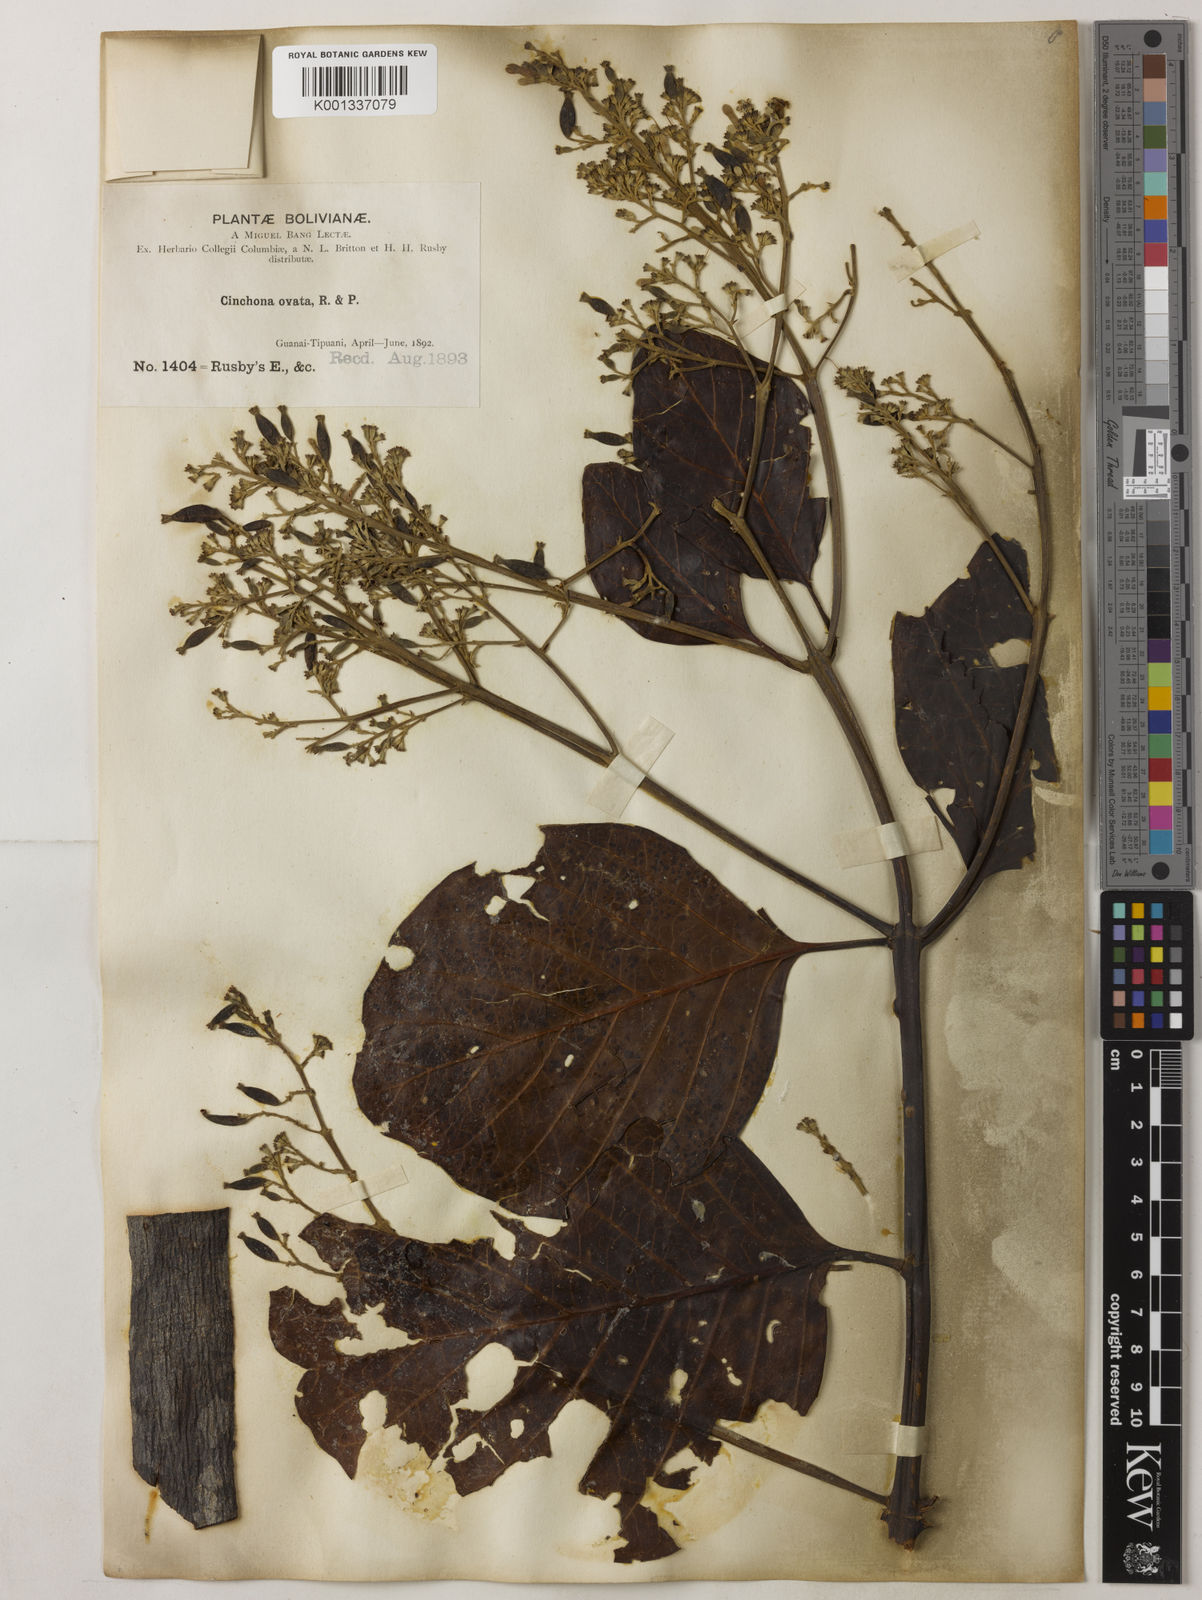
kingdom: Plantae
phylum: Tracheophyta
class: Magnoliopsida
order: Gentianales
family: Rubiaceae
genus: Cinchona
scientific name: Cinchona pubescens
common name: Quinine
